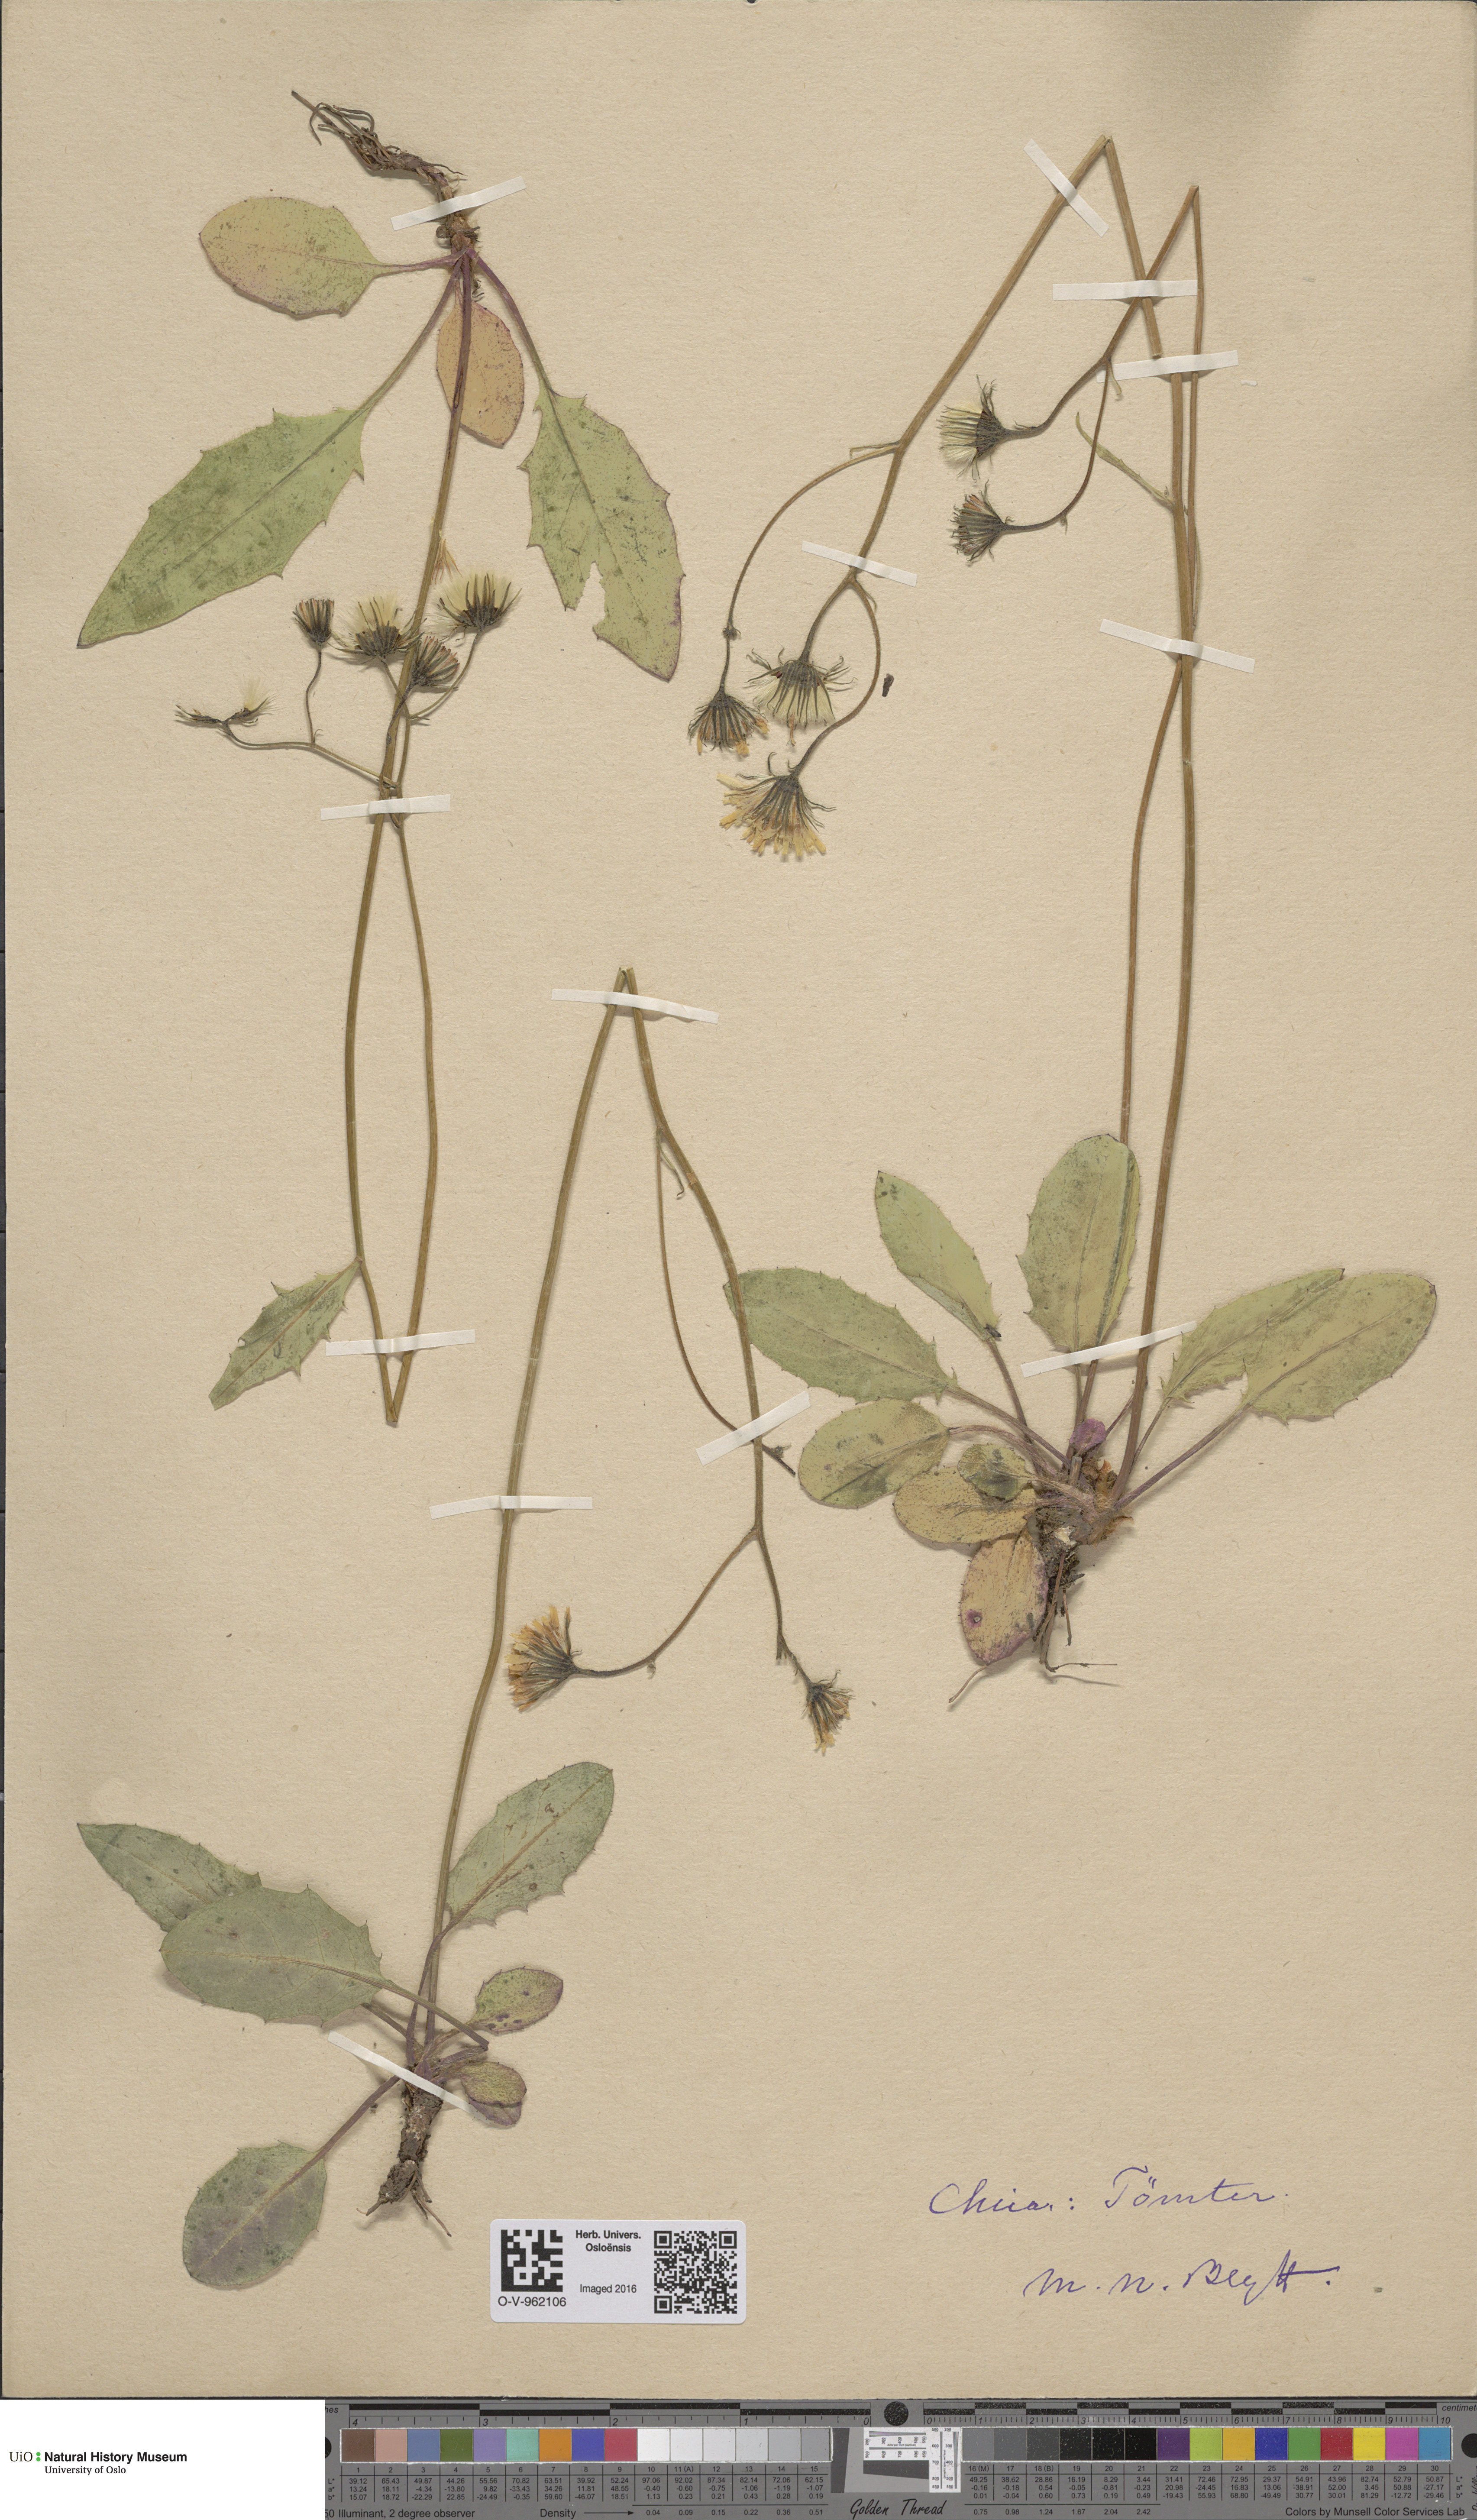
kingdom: Plantae
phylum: Tracheophyta
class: Magnoliopsida
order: Asterales
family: Asteraceae
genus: Hieracium
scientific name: Hieracium
